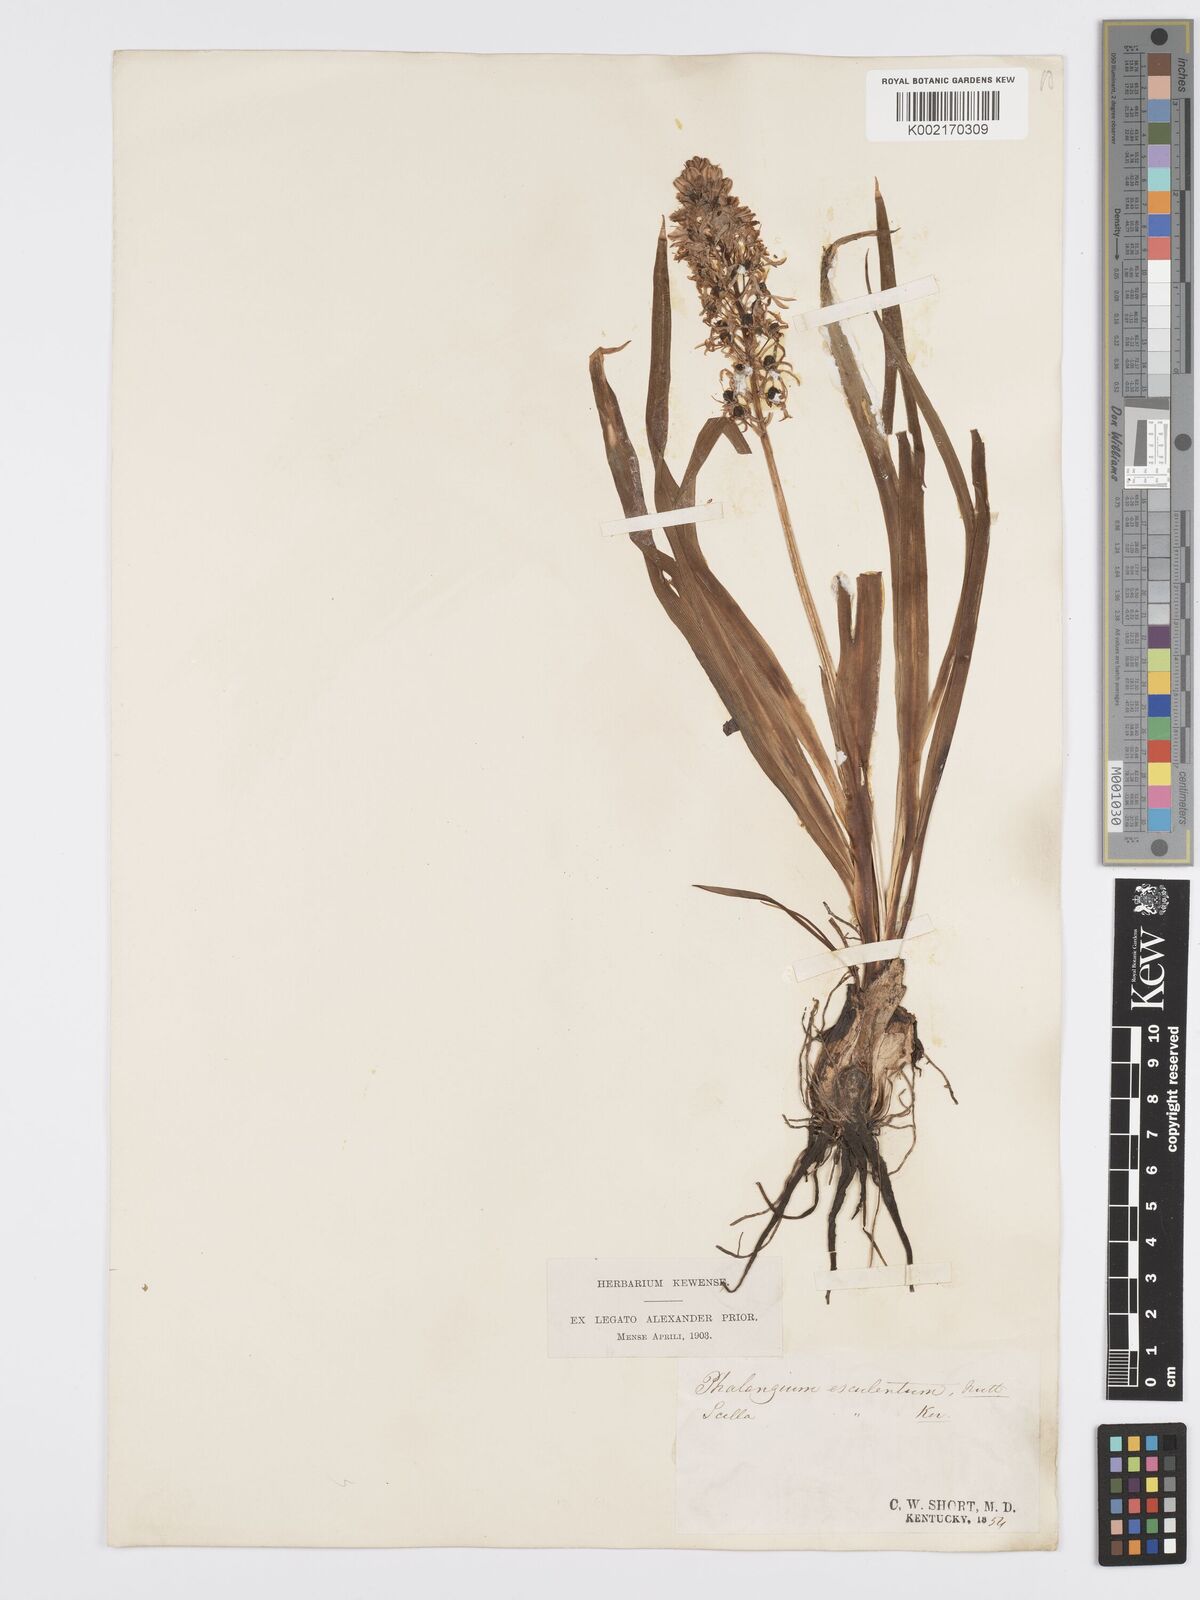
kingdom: Plantae
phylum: Tracheophyta
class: Liliopsida
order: Asparagales
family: Asparagaceae
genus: Camassia
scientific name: Camassia scilloides
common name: Wild hyacinth
